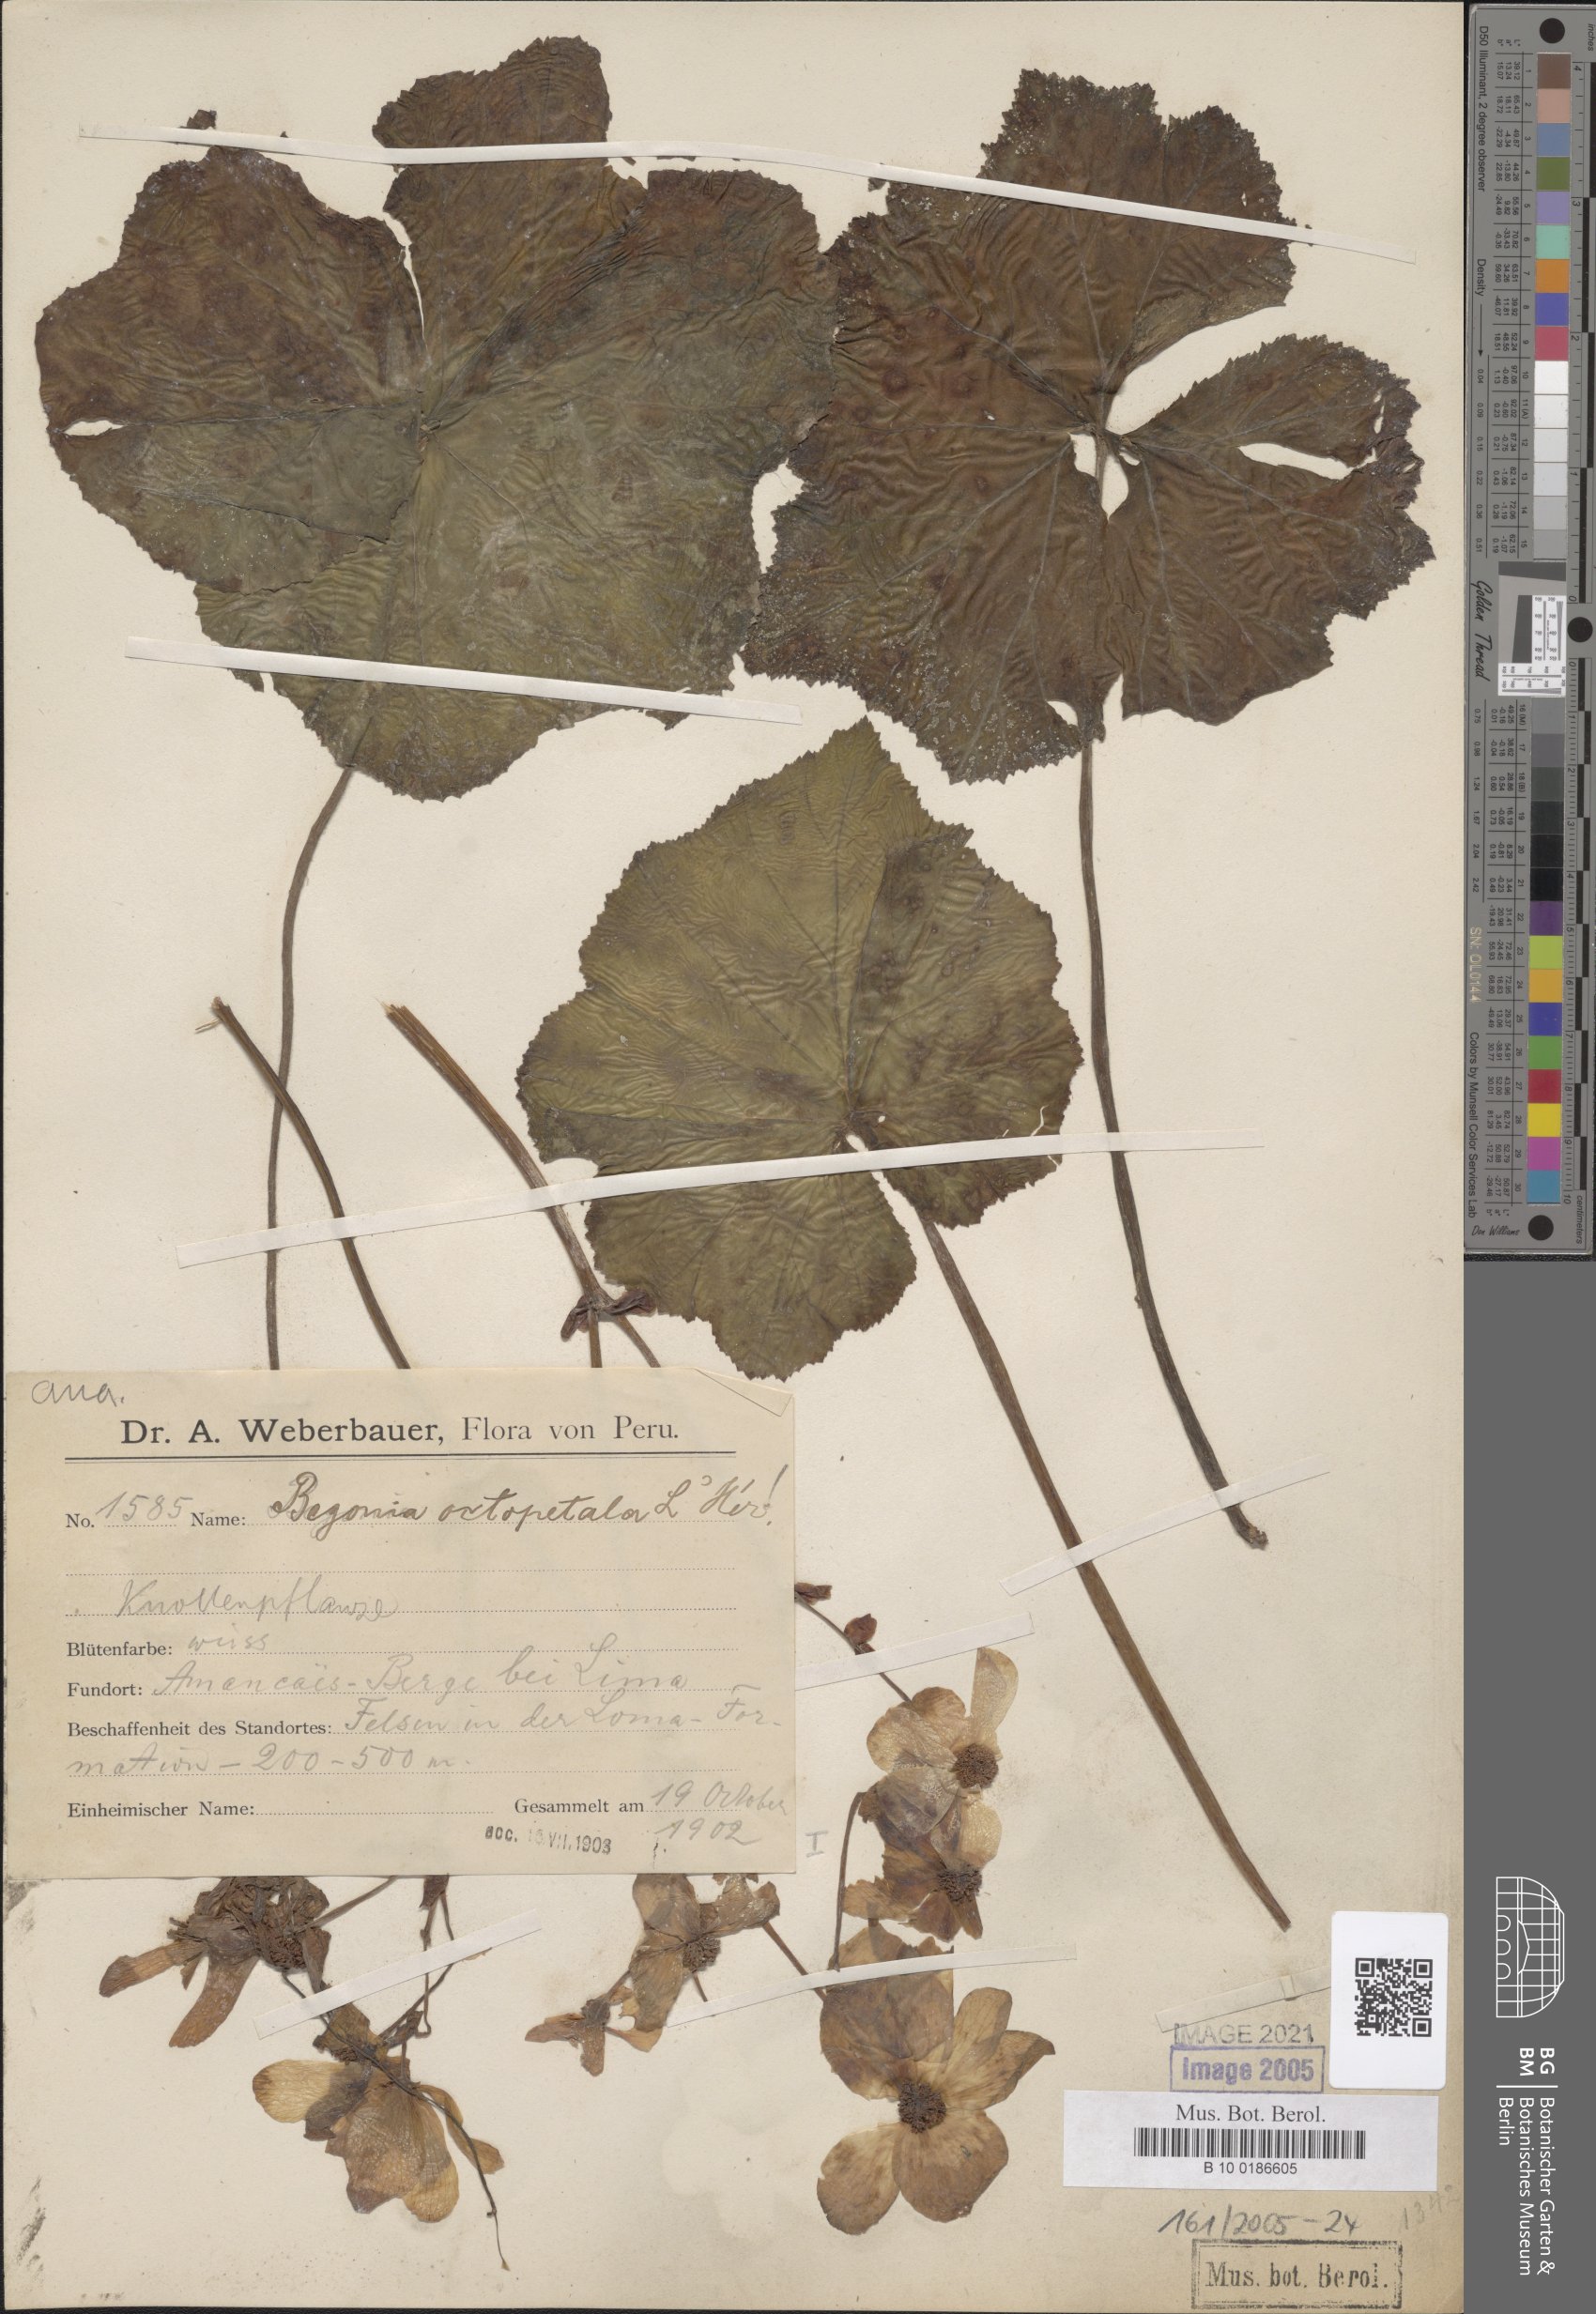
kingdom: Plantae
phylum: Tracheophyta
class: Magnoliopsida
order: Cucurbitales
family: Begoniaceae
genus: Begonia
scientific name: Begonia octopetala
